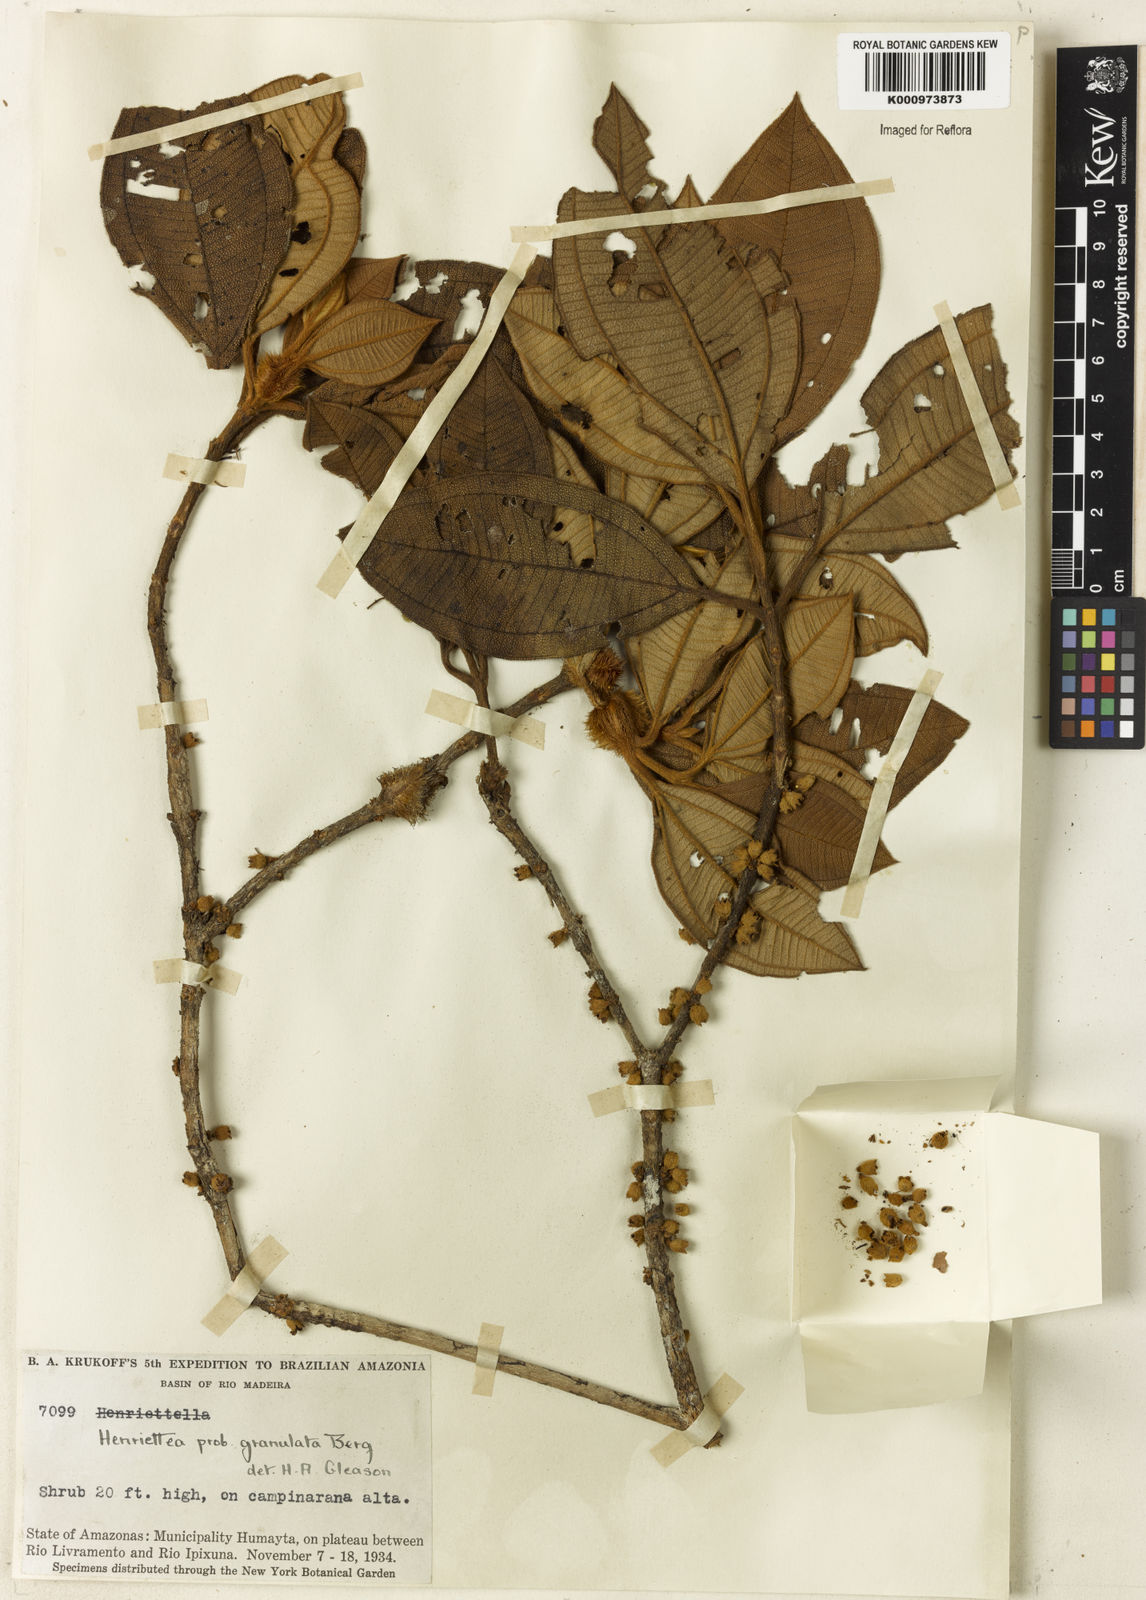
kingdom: Plantae
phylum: Tracheophyta
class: Magnoliopsida
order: Myrtales
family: Melastomataceae
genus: Henriettea
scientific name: Henriettea granulata
